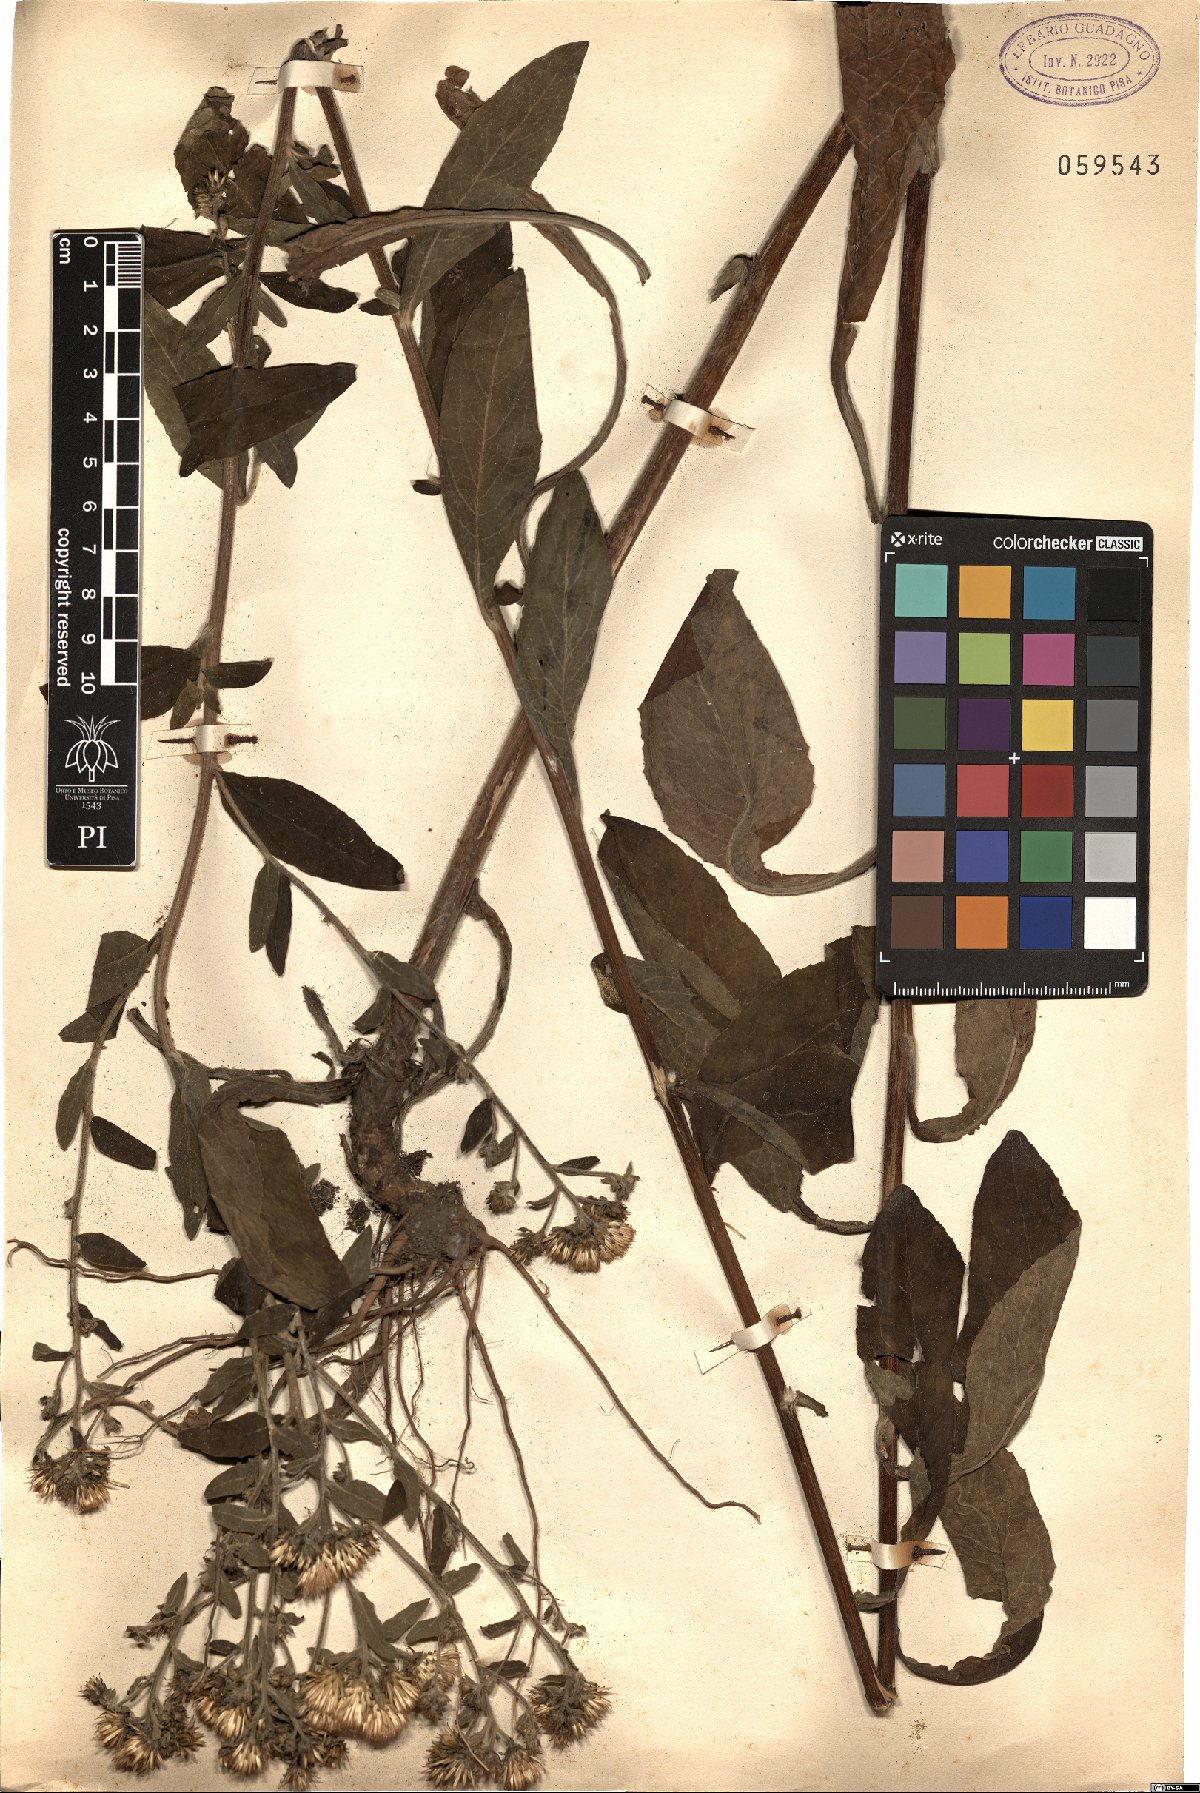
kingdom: Plantae
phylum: Tracheophyta
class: Magnoliopsida
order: Asterales
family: Asteraceae
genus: Pentanema
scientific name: Pentanema squarrosum
